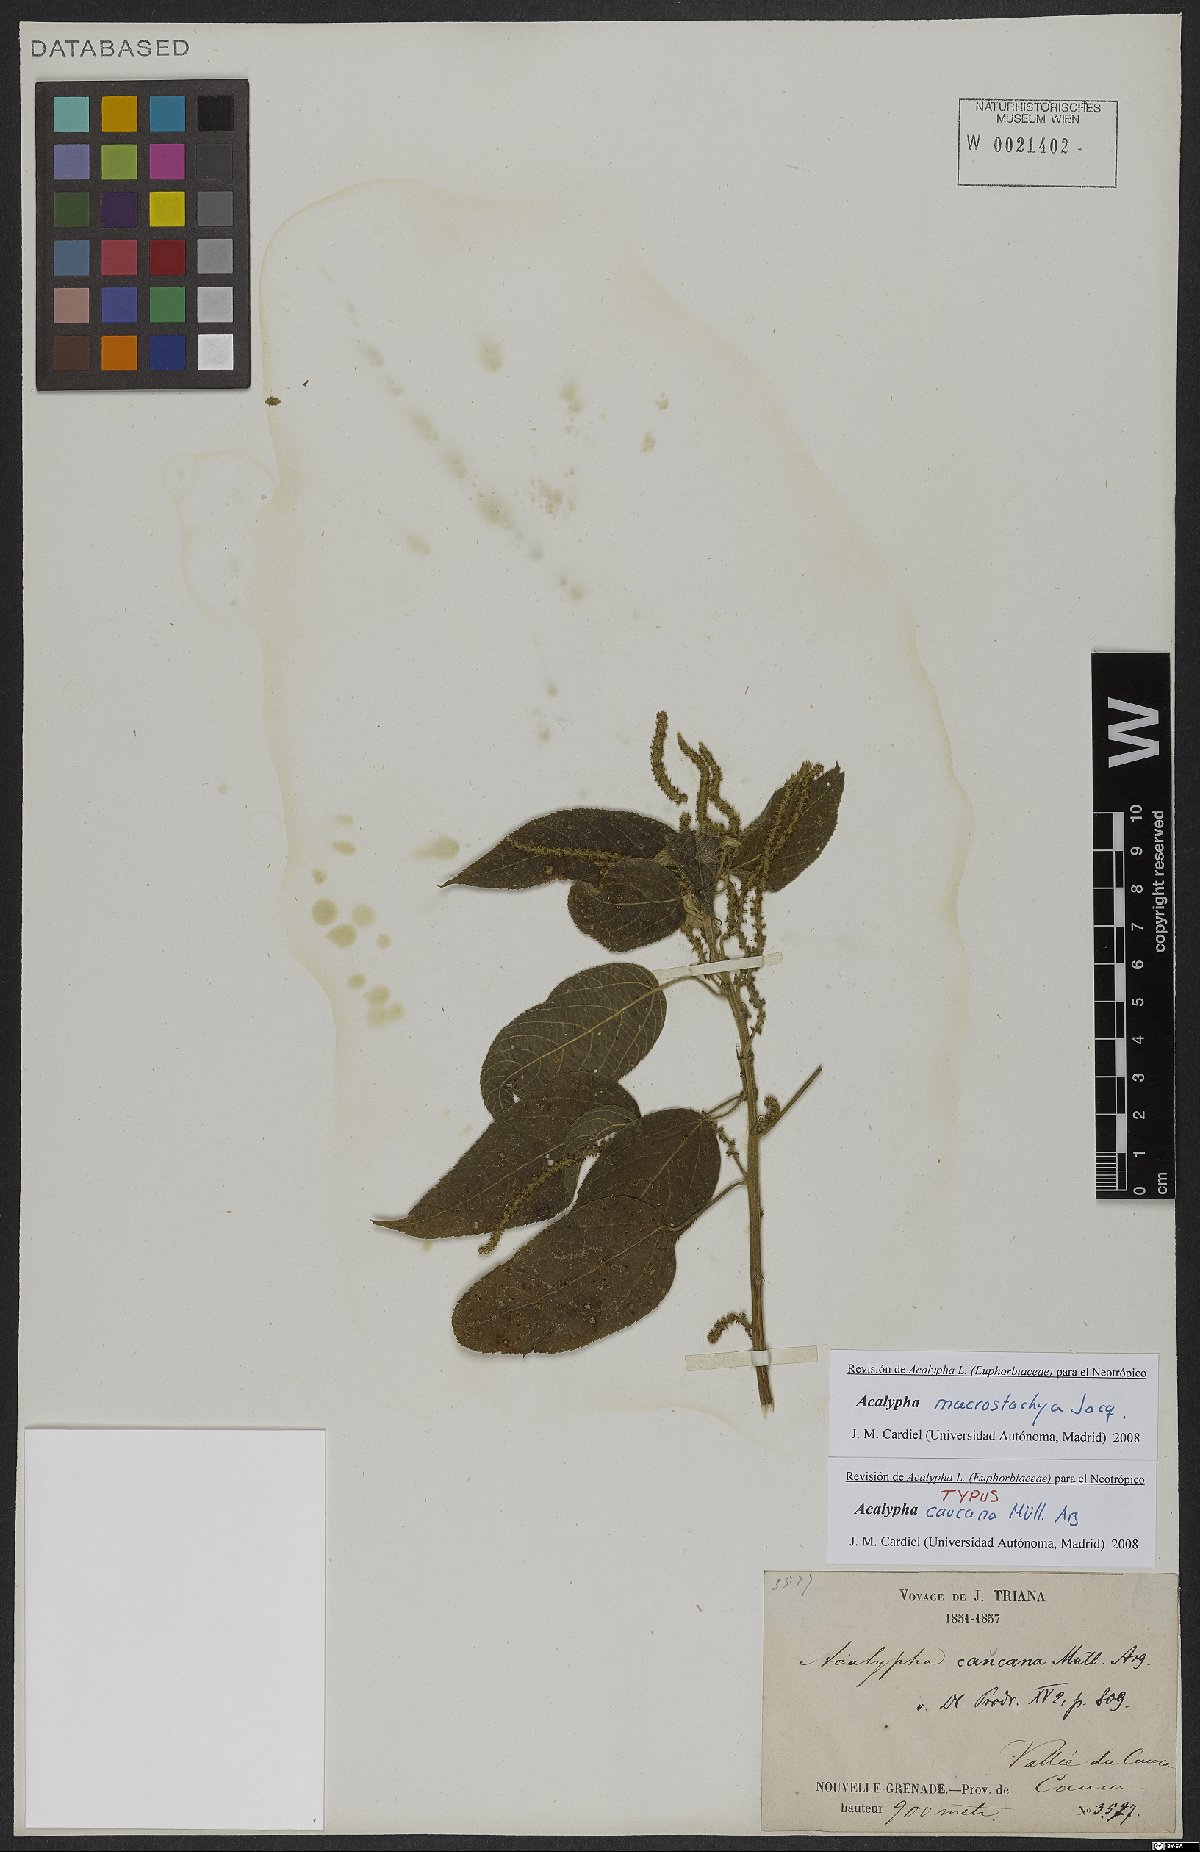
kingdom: Plantae
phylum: Tracheophyta
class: Magnoliopsida
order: Malpighiales
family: Euphorbiaceae
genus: Acalypha
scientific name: Acalypha macrostachya
